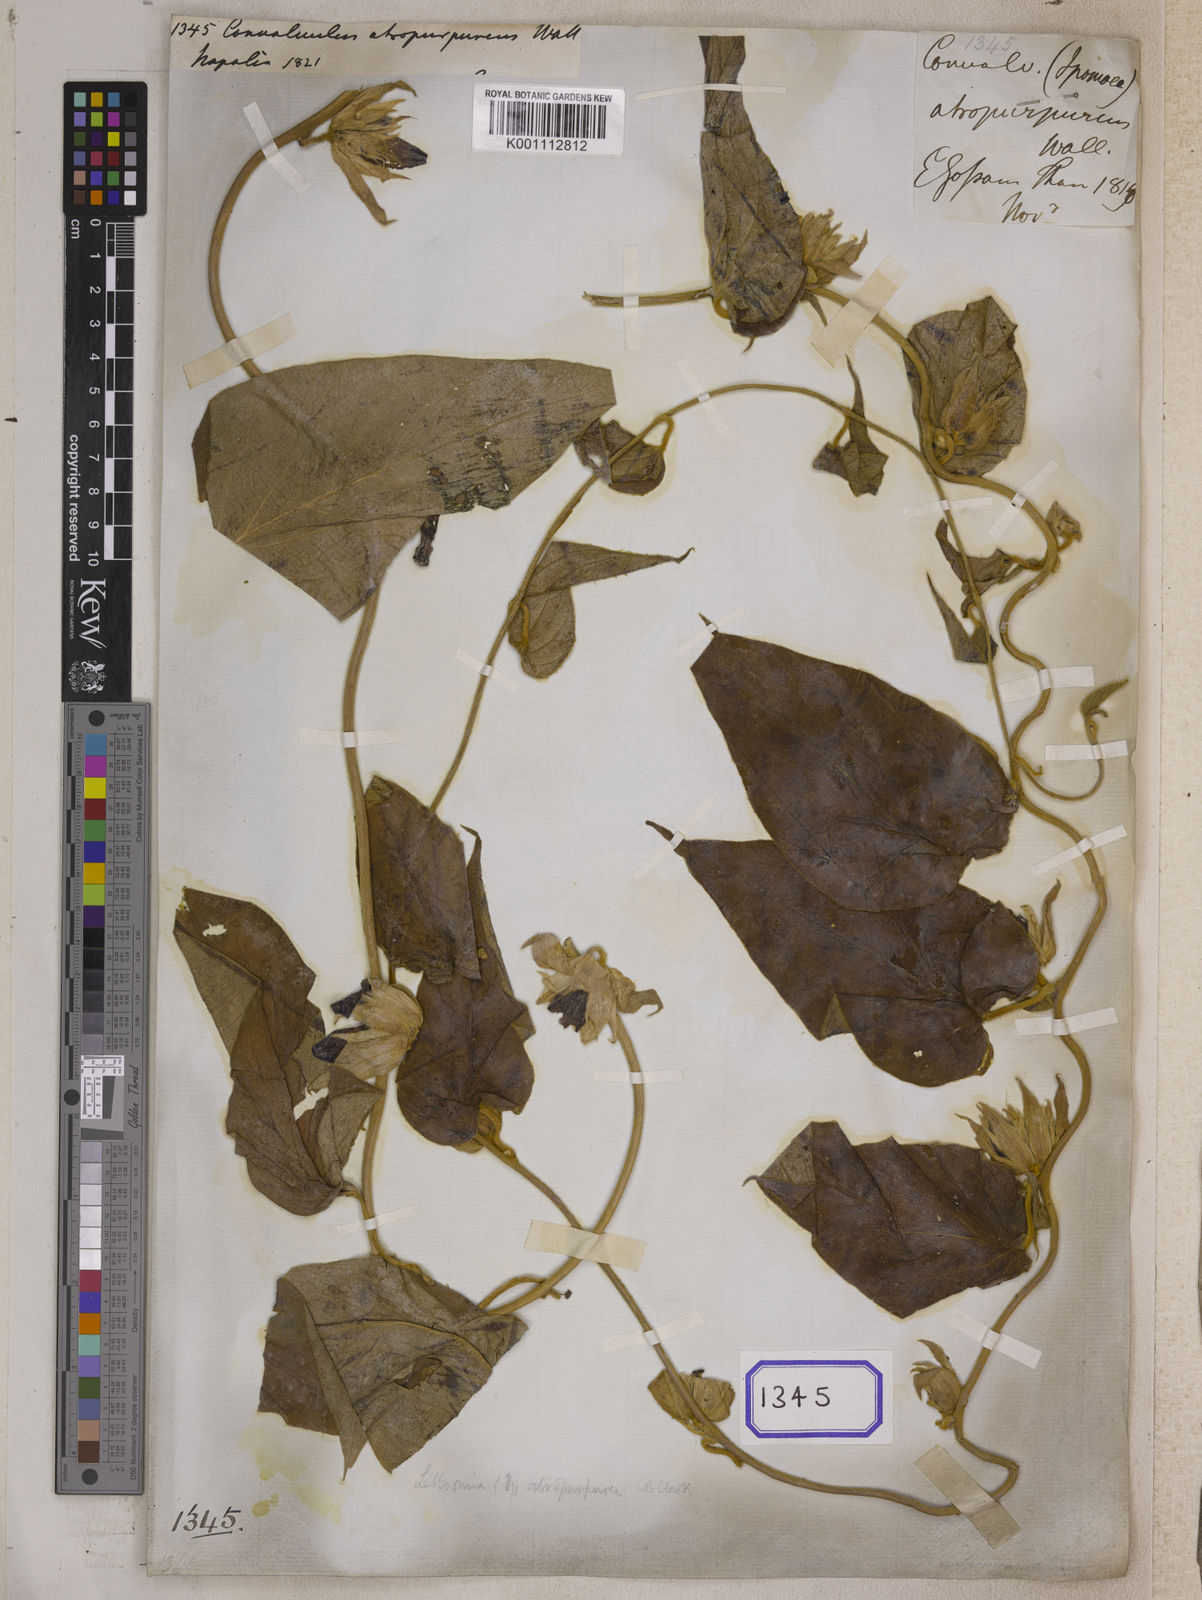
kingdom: Plantae
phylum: Tracheophyta
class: Magnoliopsida
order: Solanales
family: Convolvulaceae
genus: Argyreia
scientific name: Argyreia atropurpurea
